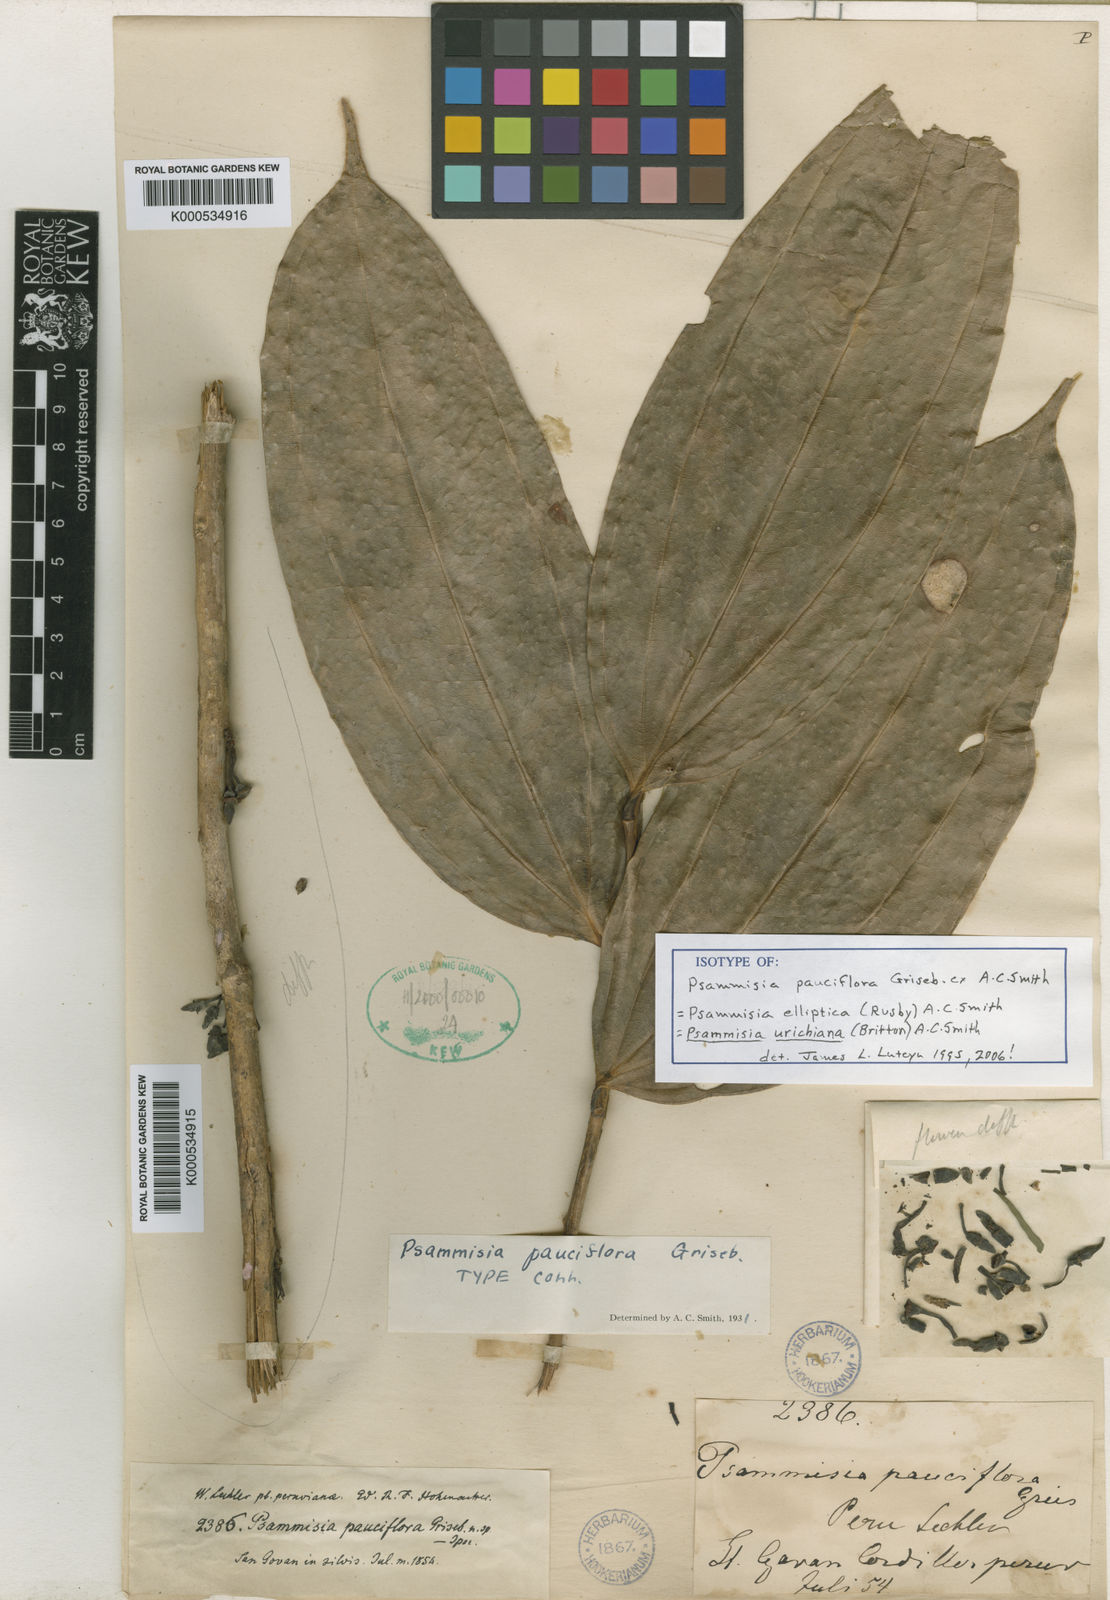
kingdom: Plantae
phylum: Tracheophyta
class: Magnoliopsida
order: Ericales
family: Ericaceae
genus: Psammisia
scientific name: Psammisia urichiana
